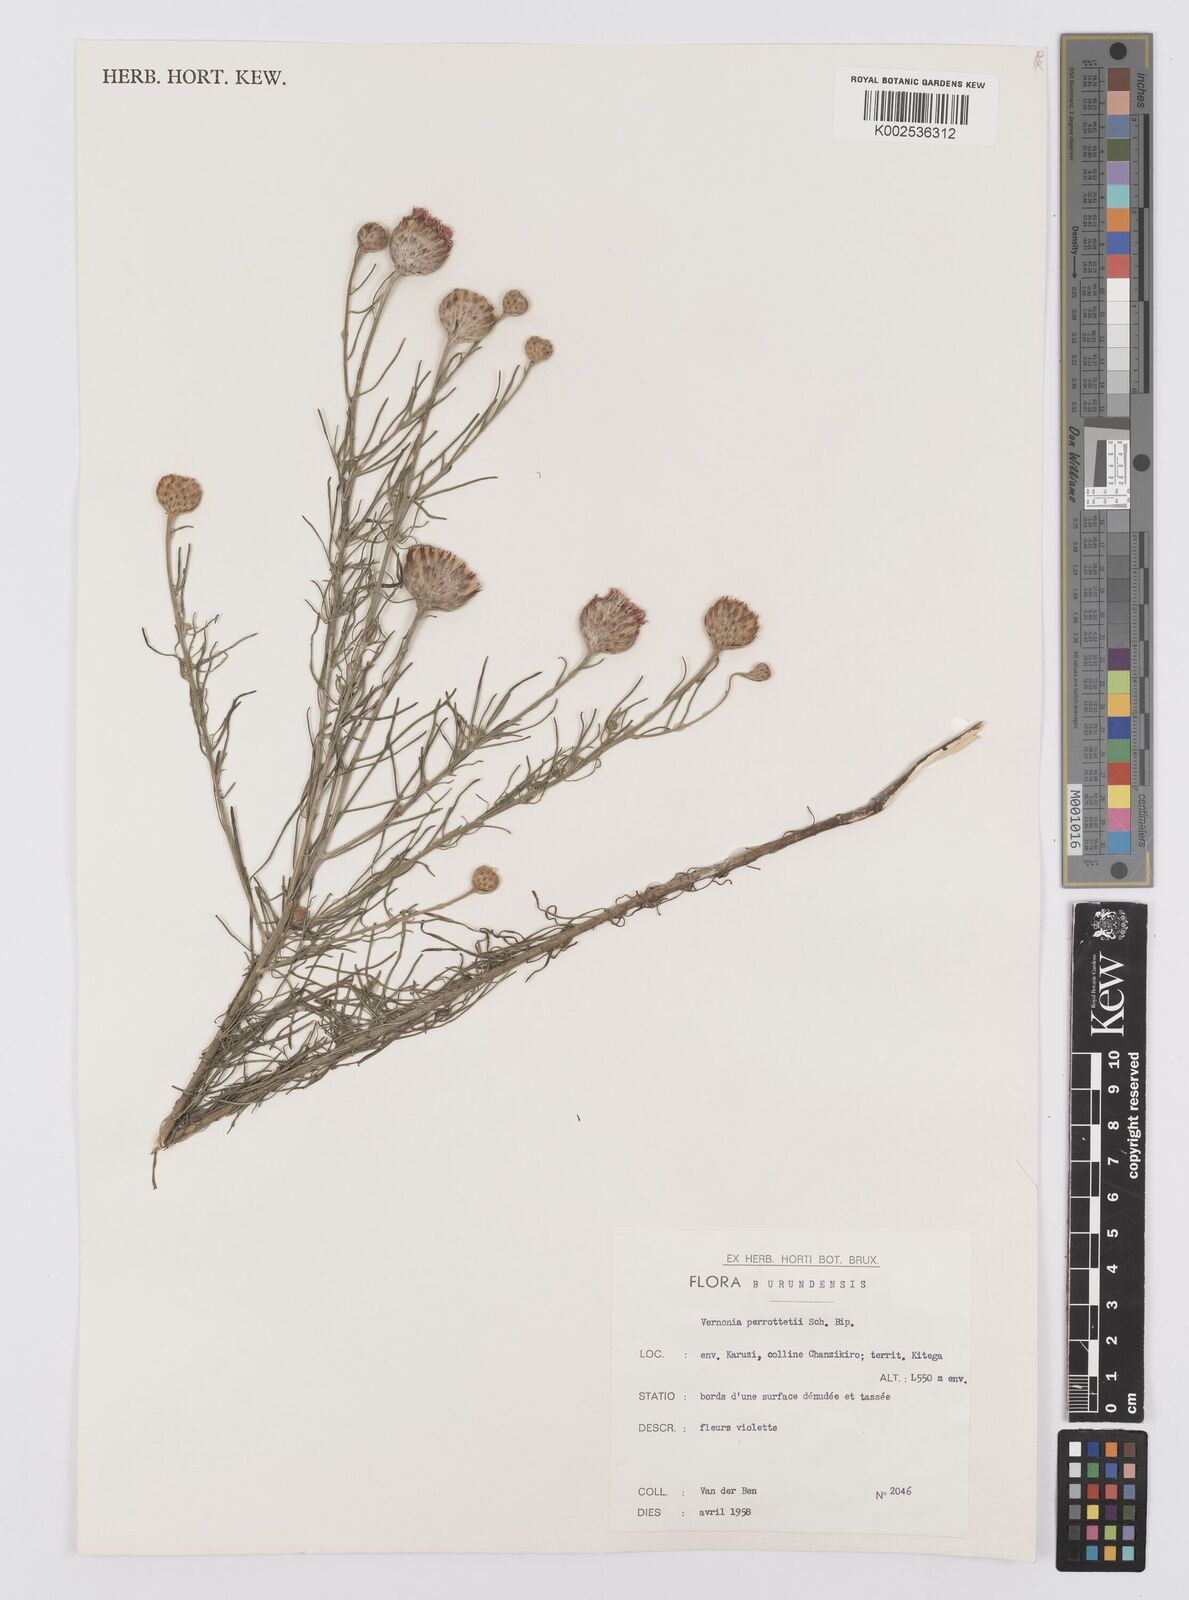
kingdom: Plantae
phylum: Tracheophyta
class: Magnoliopsida
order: Asterales
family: Asteraceae
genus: Crystallopollen
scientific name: Crystallopollen serratuloides
